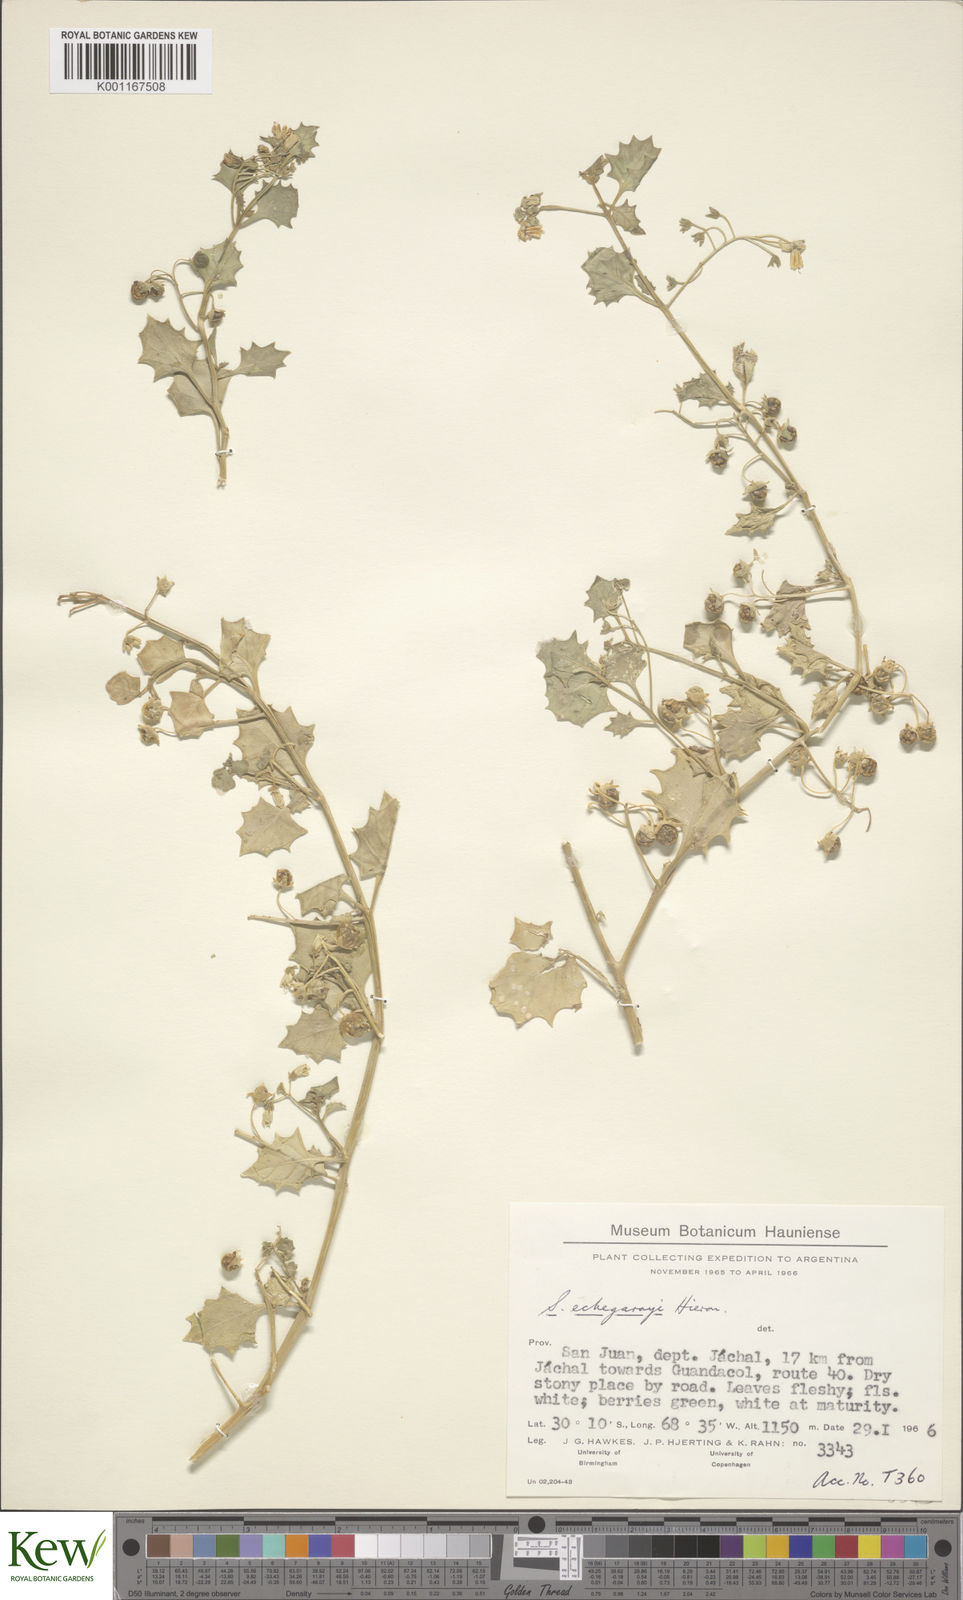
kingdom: Plantae
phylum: Tracheophyta
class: Magnoliopsida
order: Solanales
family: Solanaceae
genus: Solanum
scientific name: Solanum echegarayi
